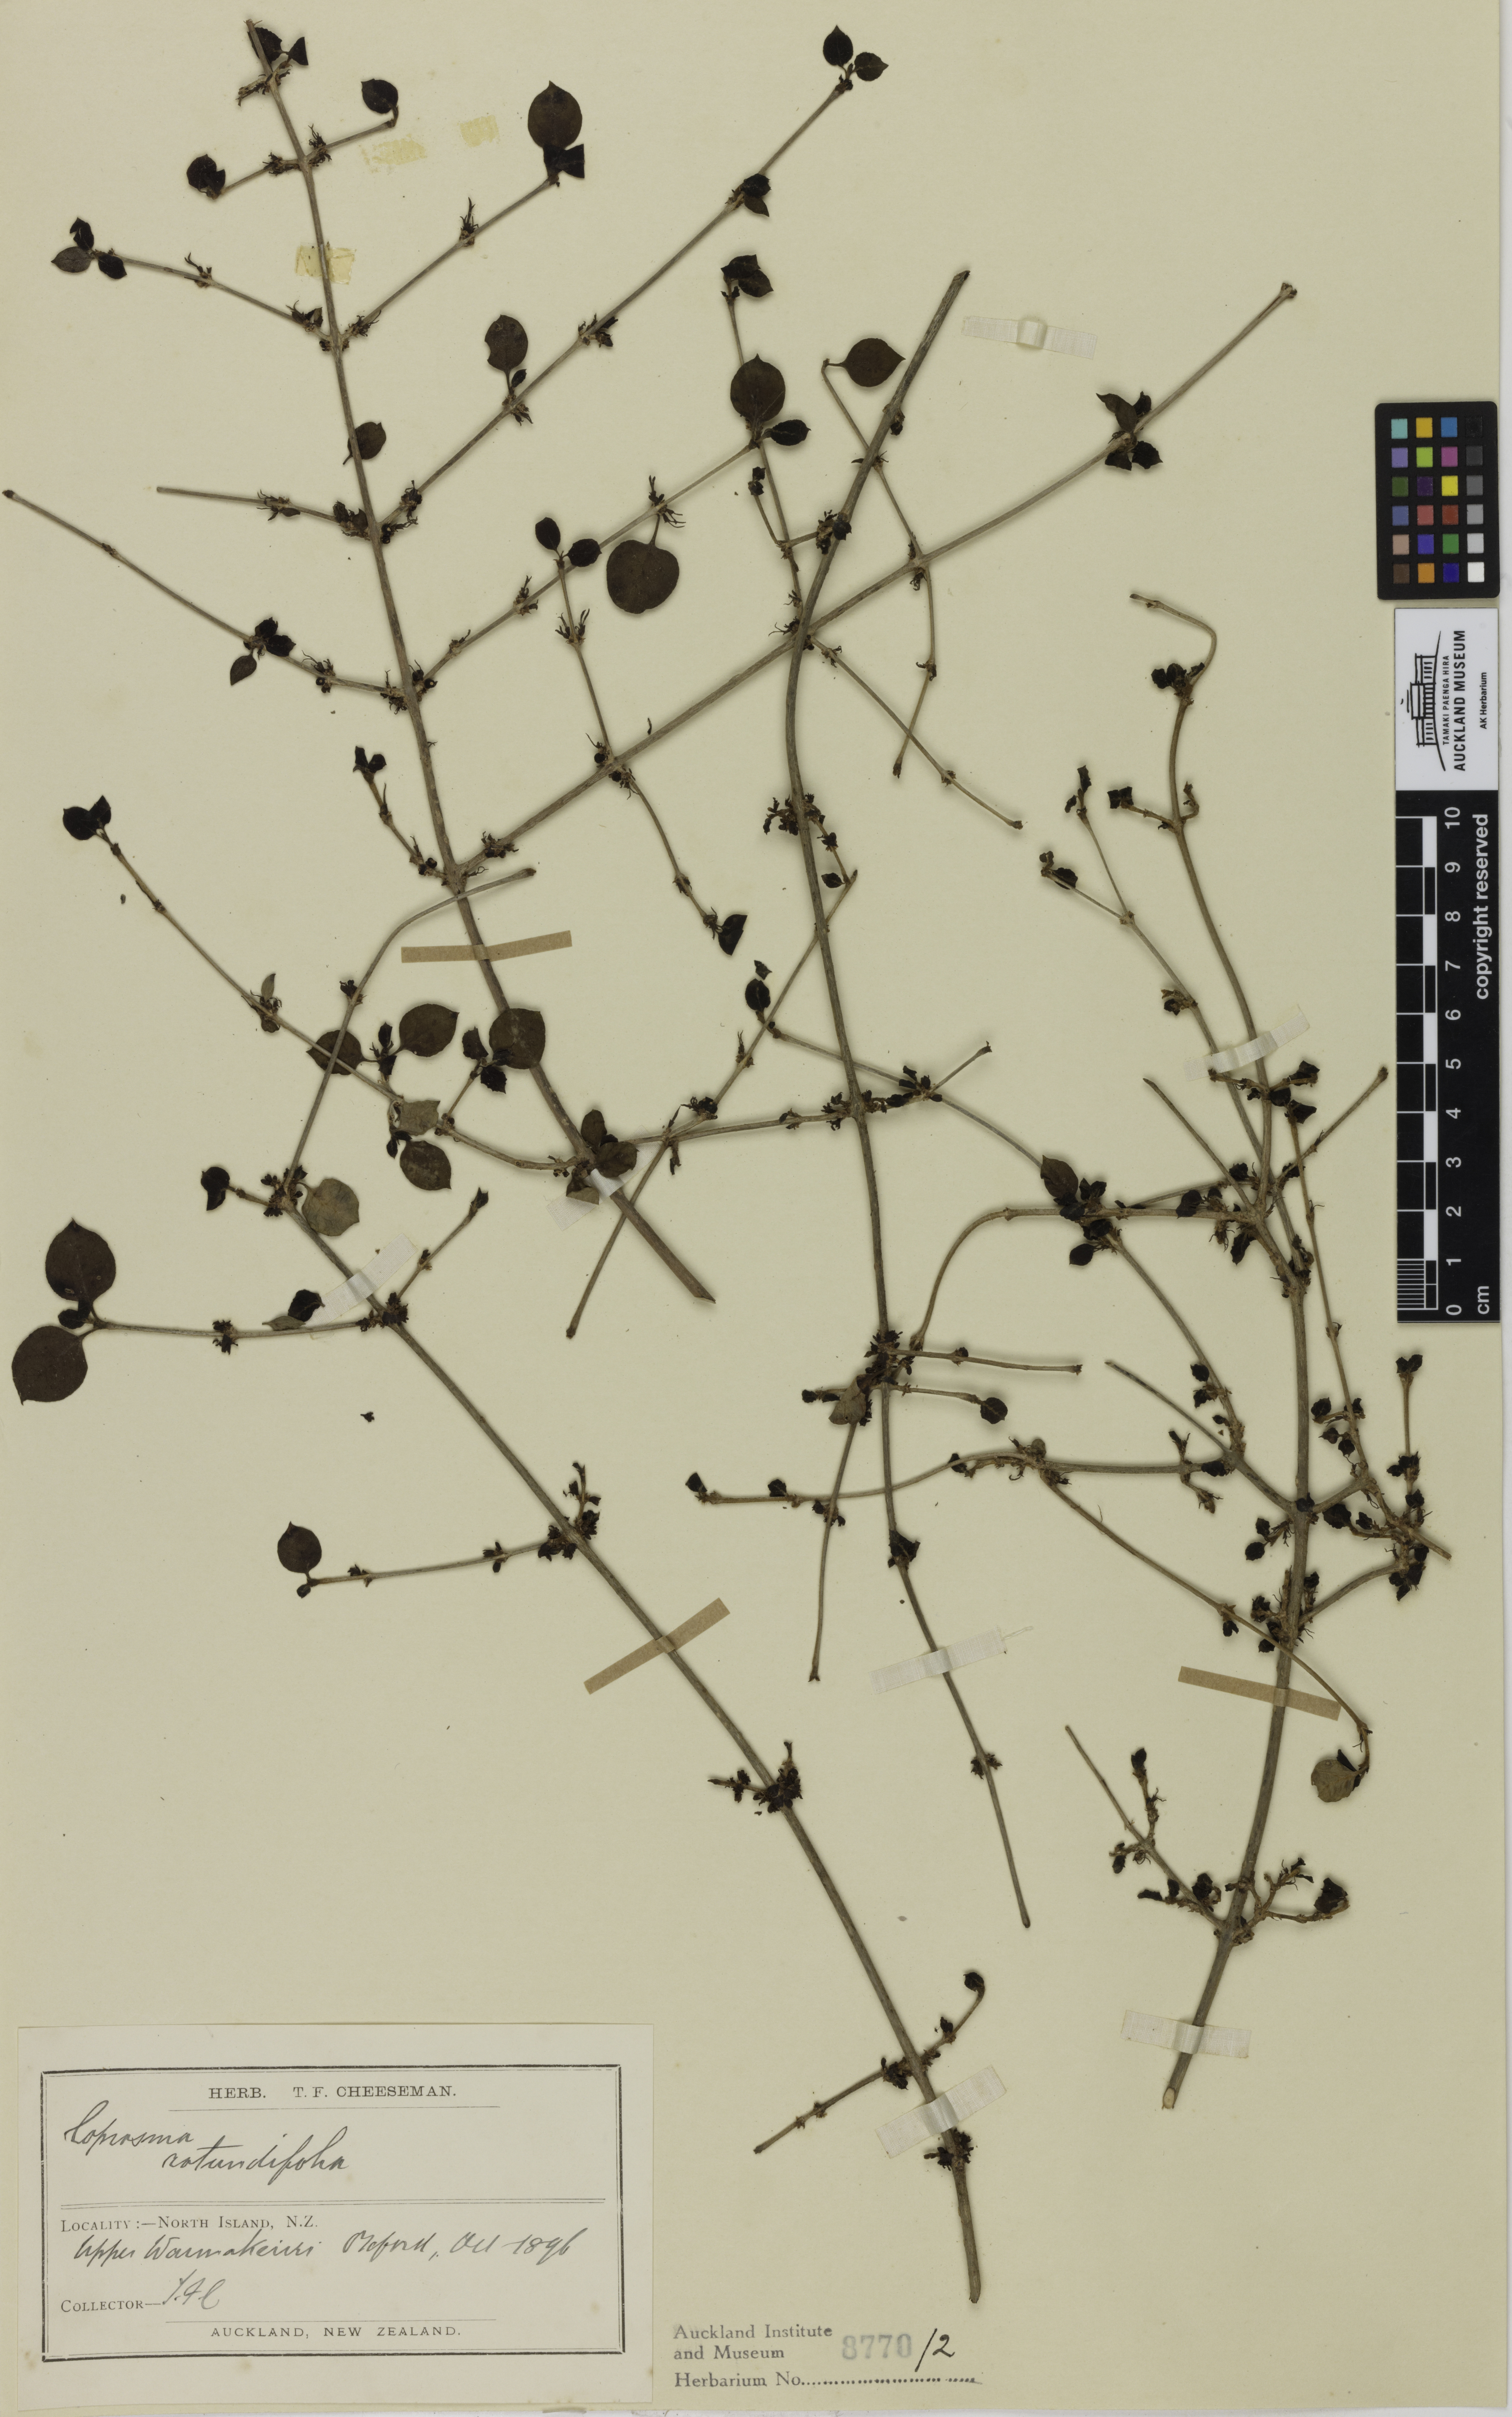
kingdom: Plantae
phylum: Tracheophyta
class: Magnoliopsida
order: Gentianales
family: Rubiaceae
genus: Coprosma
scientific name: Coprosma rotundifolia
